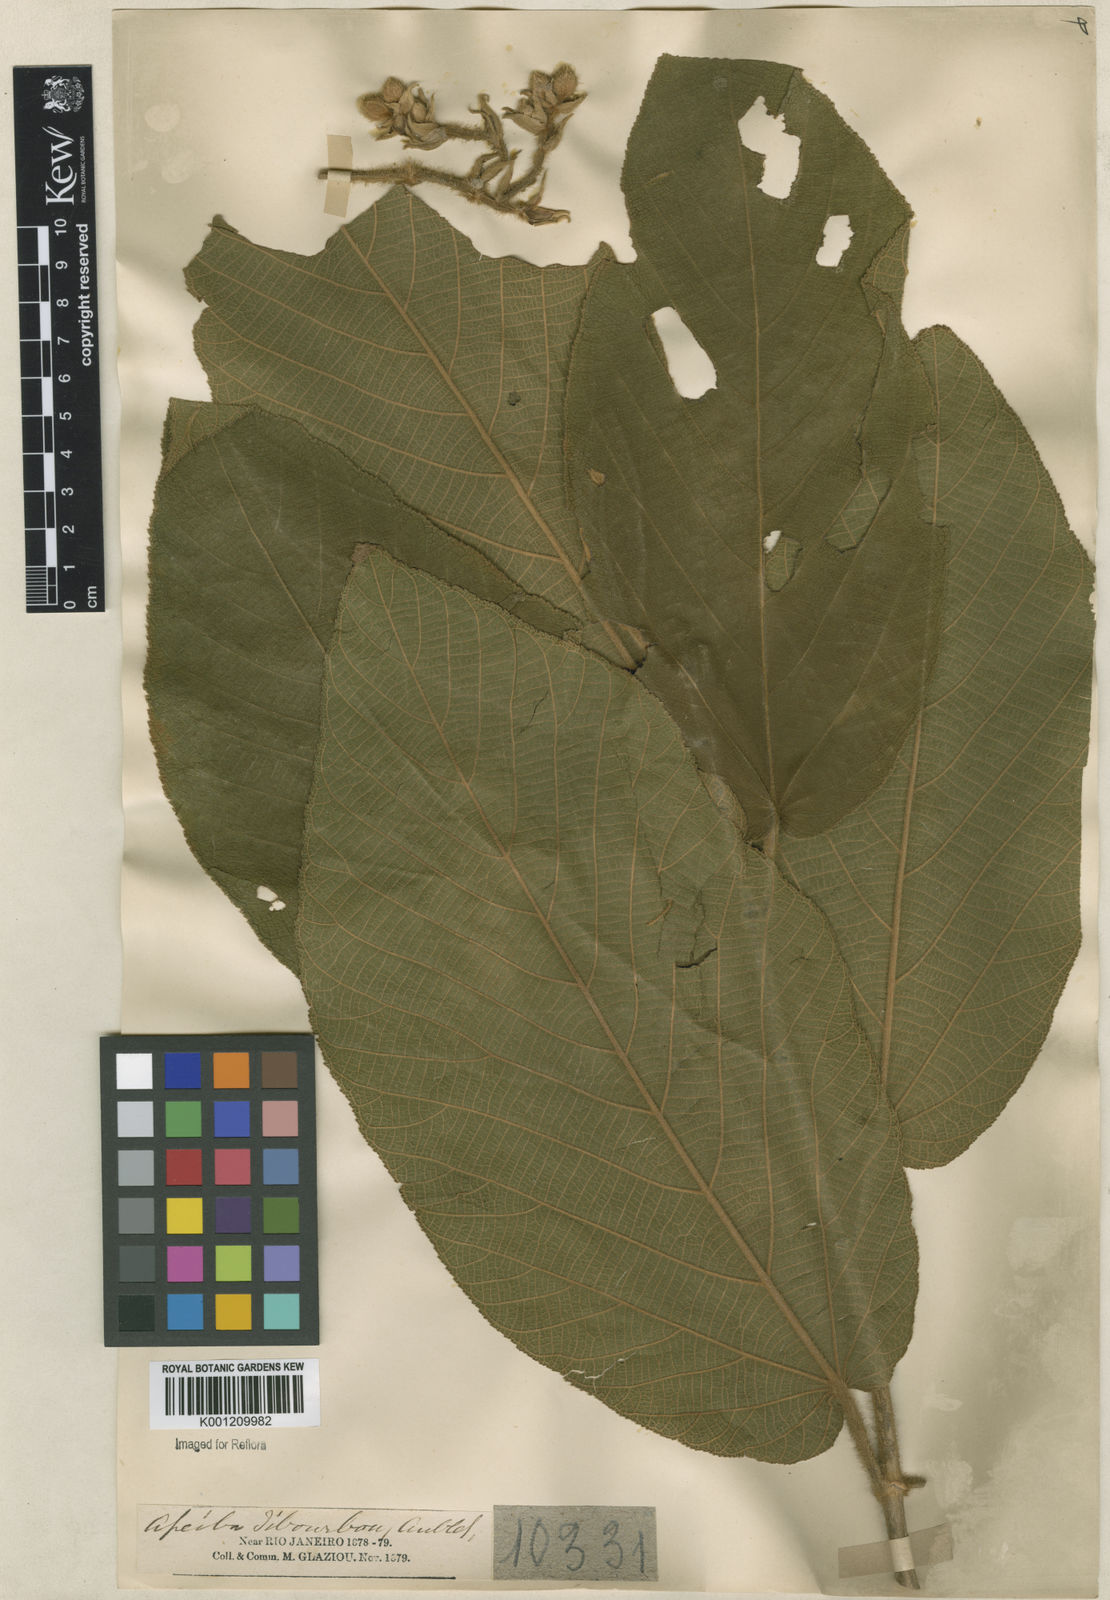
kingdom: Plantae
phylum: Tracheophyta
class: Magnoliopsida
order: Malvales
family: Malvaceae
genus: Apeiba
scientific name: Apeiba tibourbou
